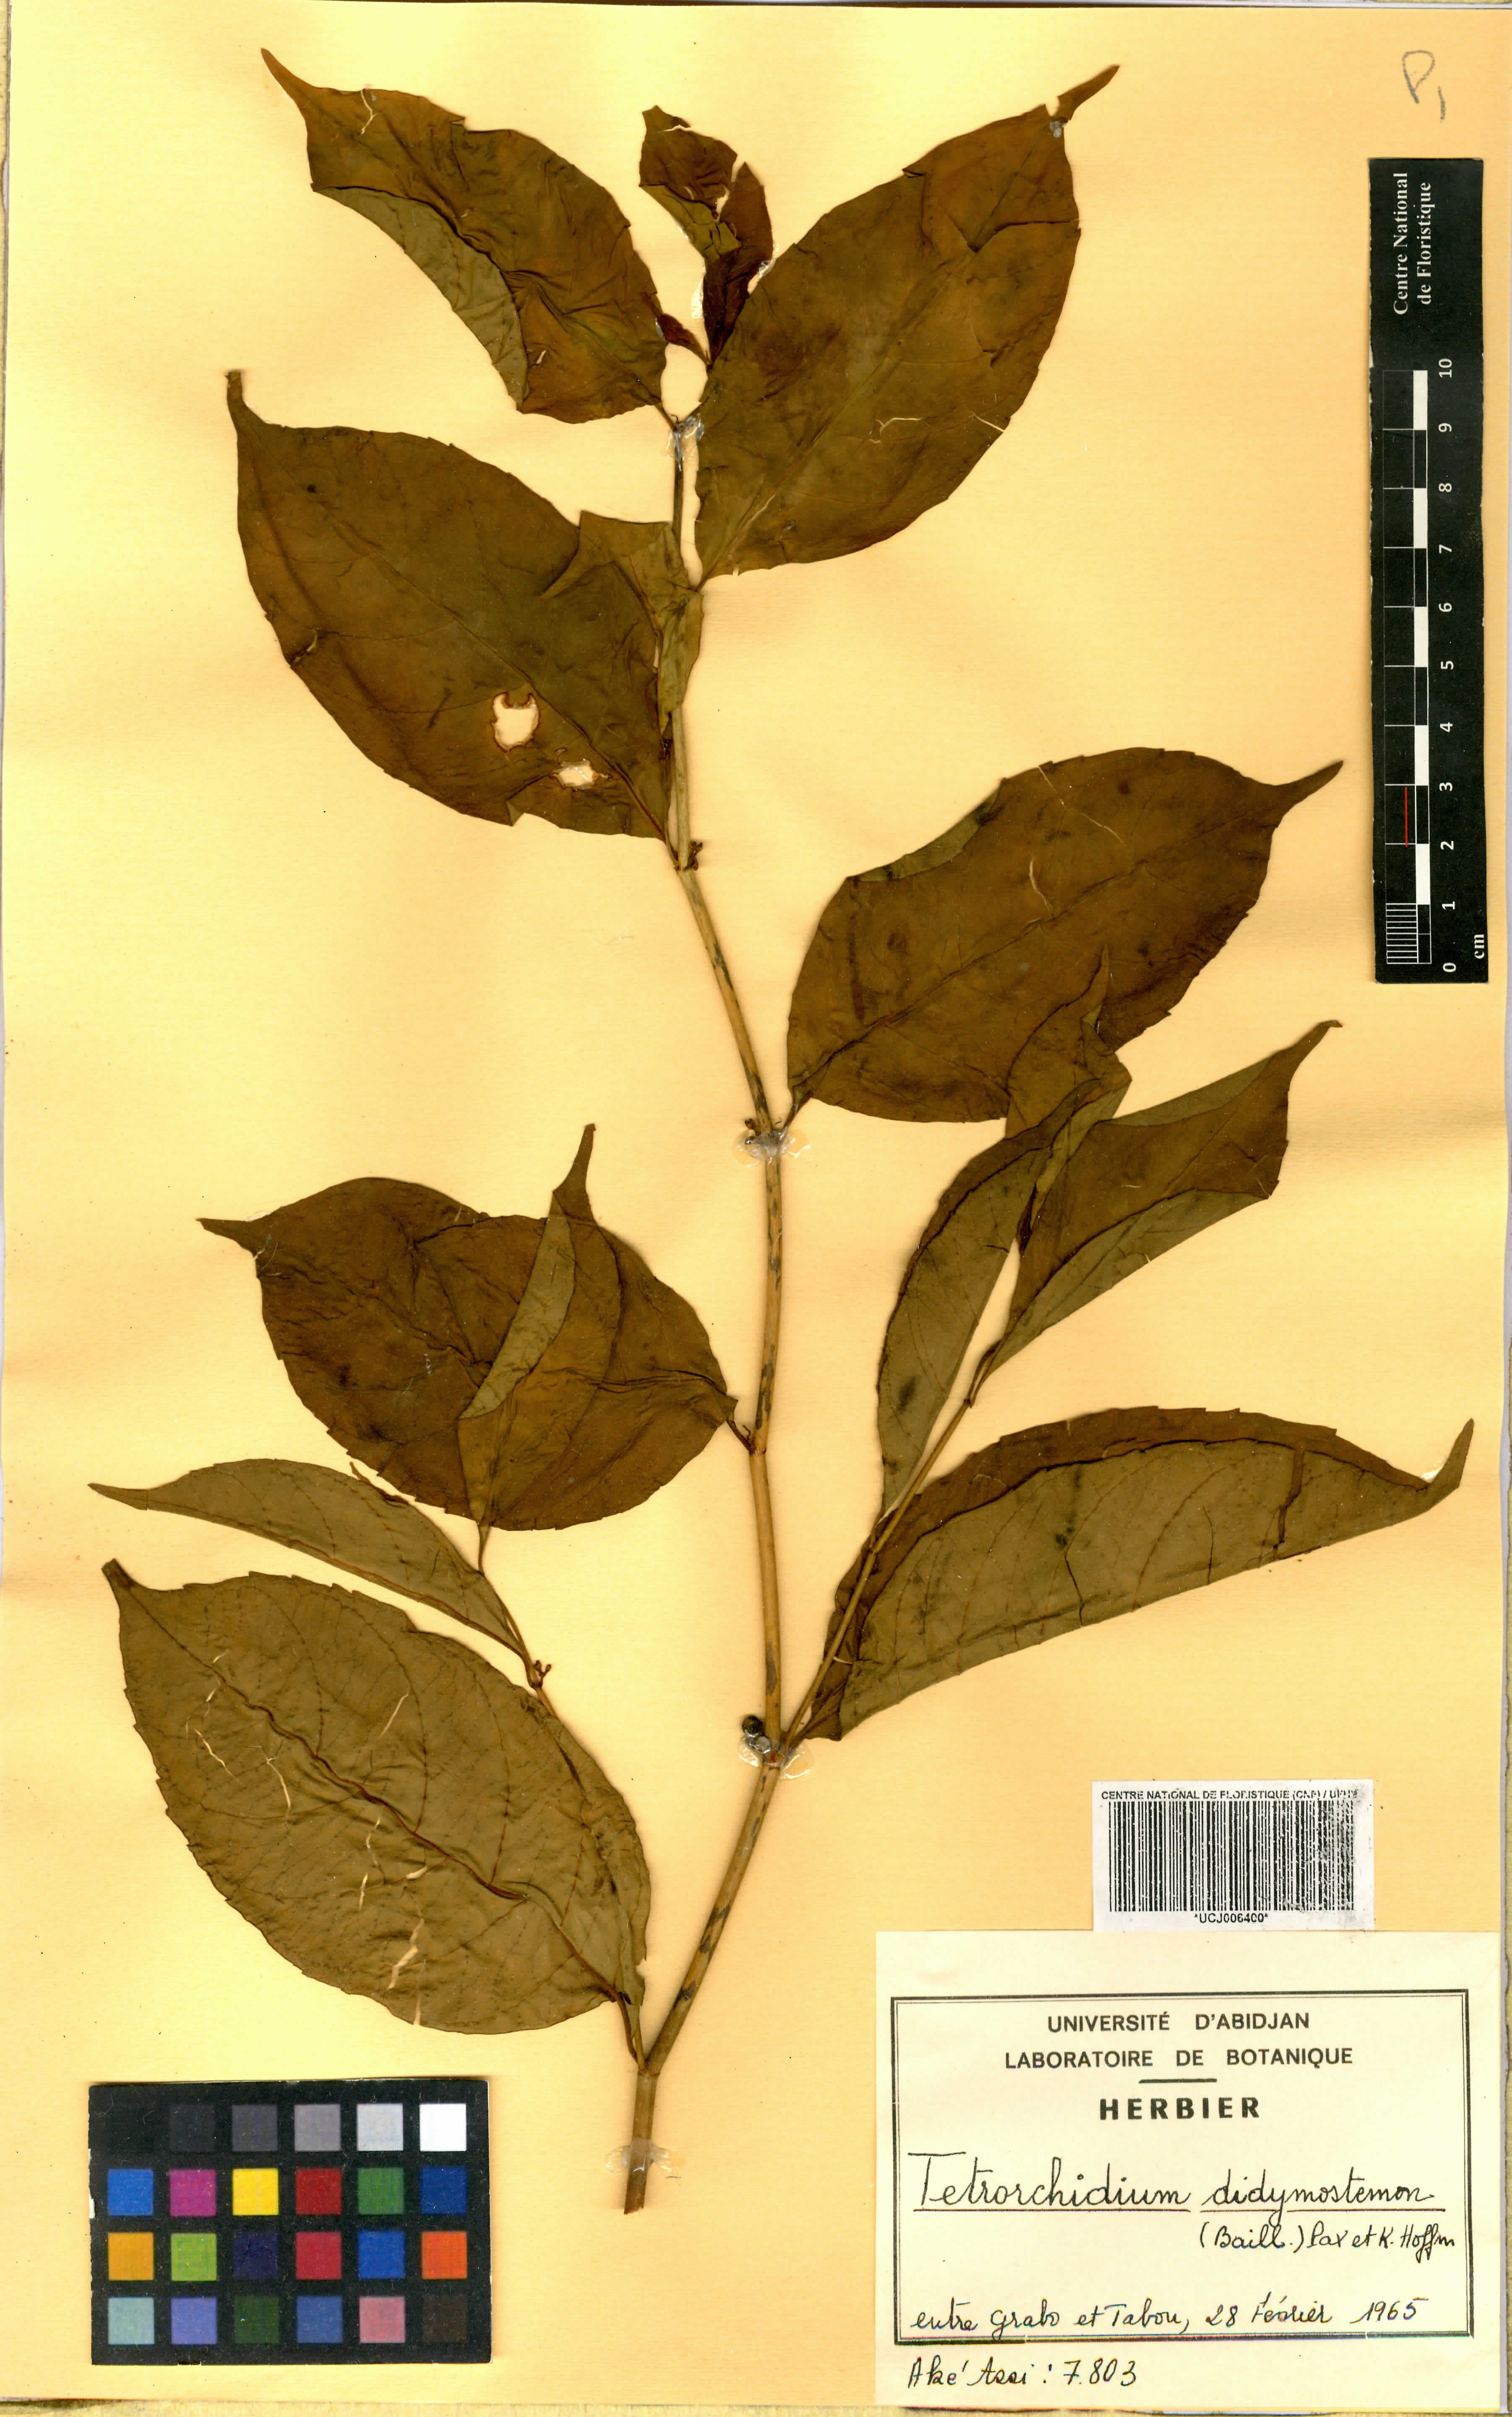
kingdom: Plantae
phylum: Tracheophyta
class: Magnoliopsida
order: Malpighiales
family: Euphorbiaceae
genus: Tetrorchidium
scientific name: Tetrorchidium didymostemon
